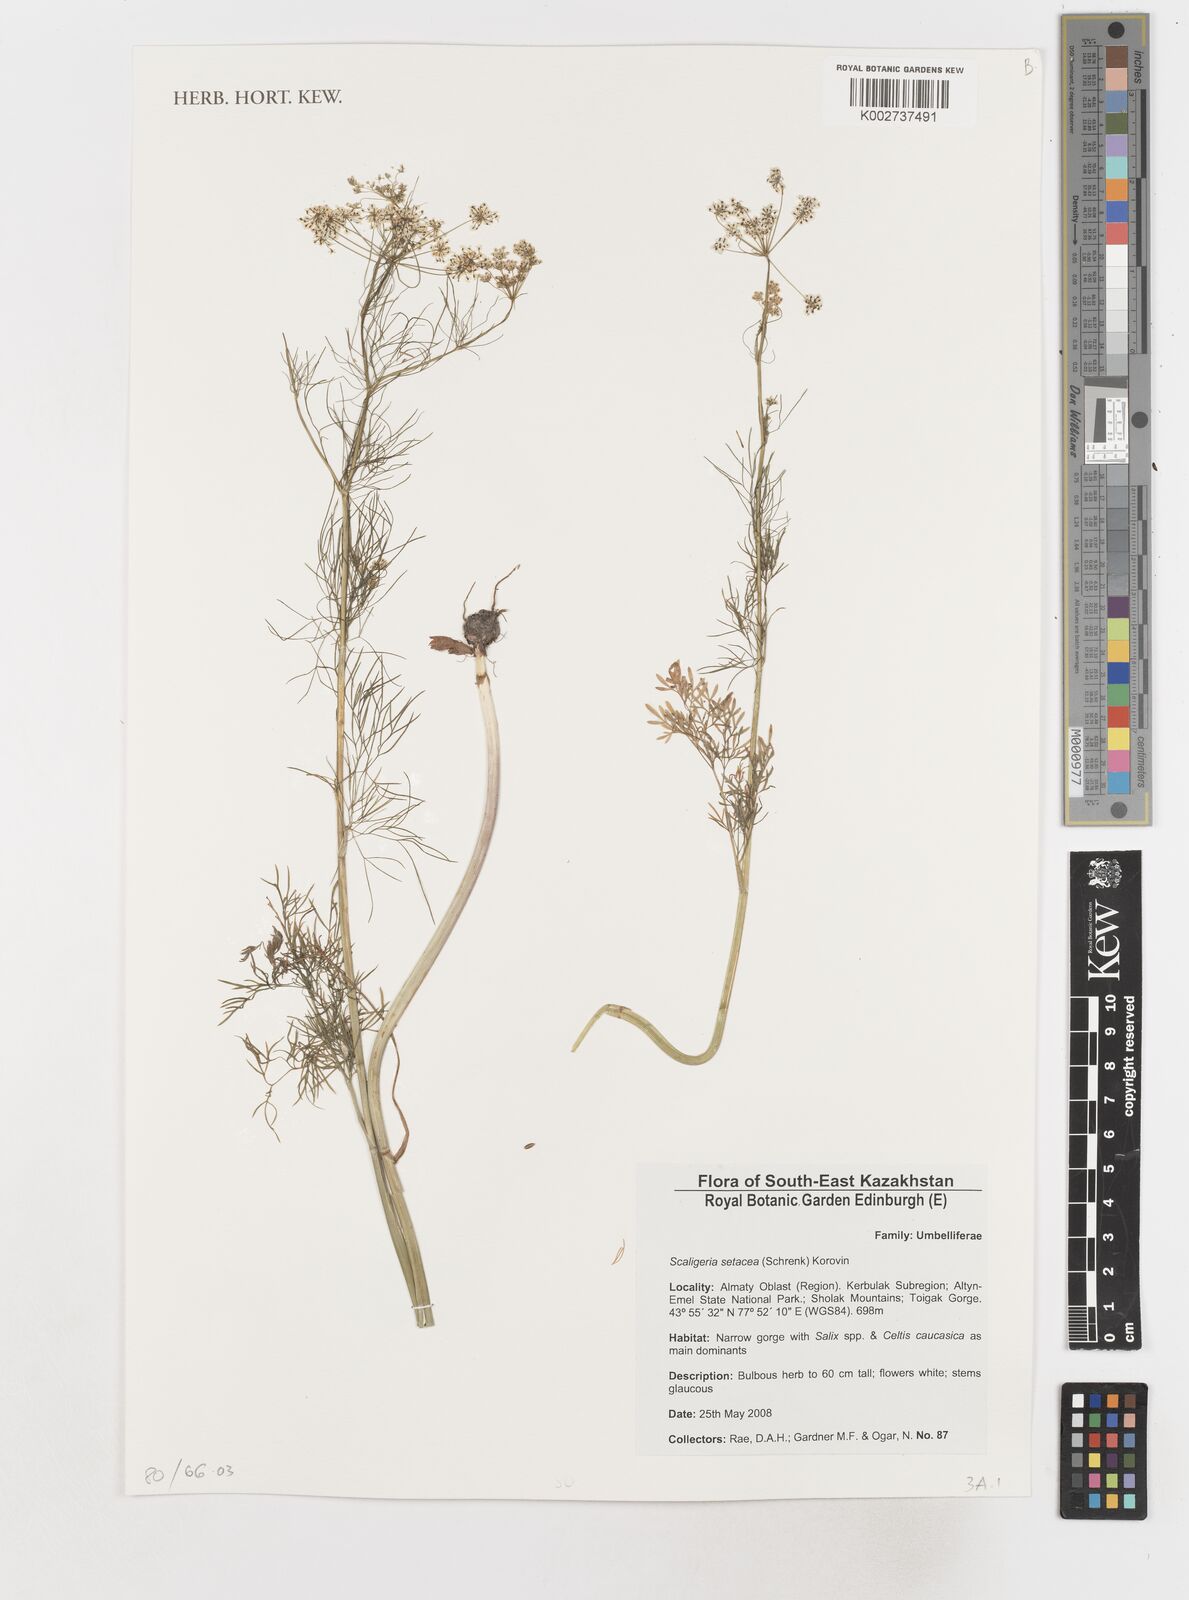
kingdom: Plantae
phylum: Tracheophyta
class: Magnoliopsida
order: Apiales
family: Apiaceae
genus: Elwendia
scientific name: Elwendia setacea
